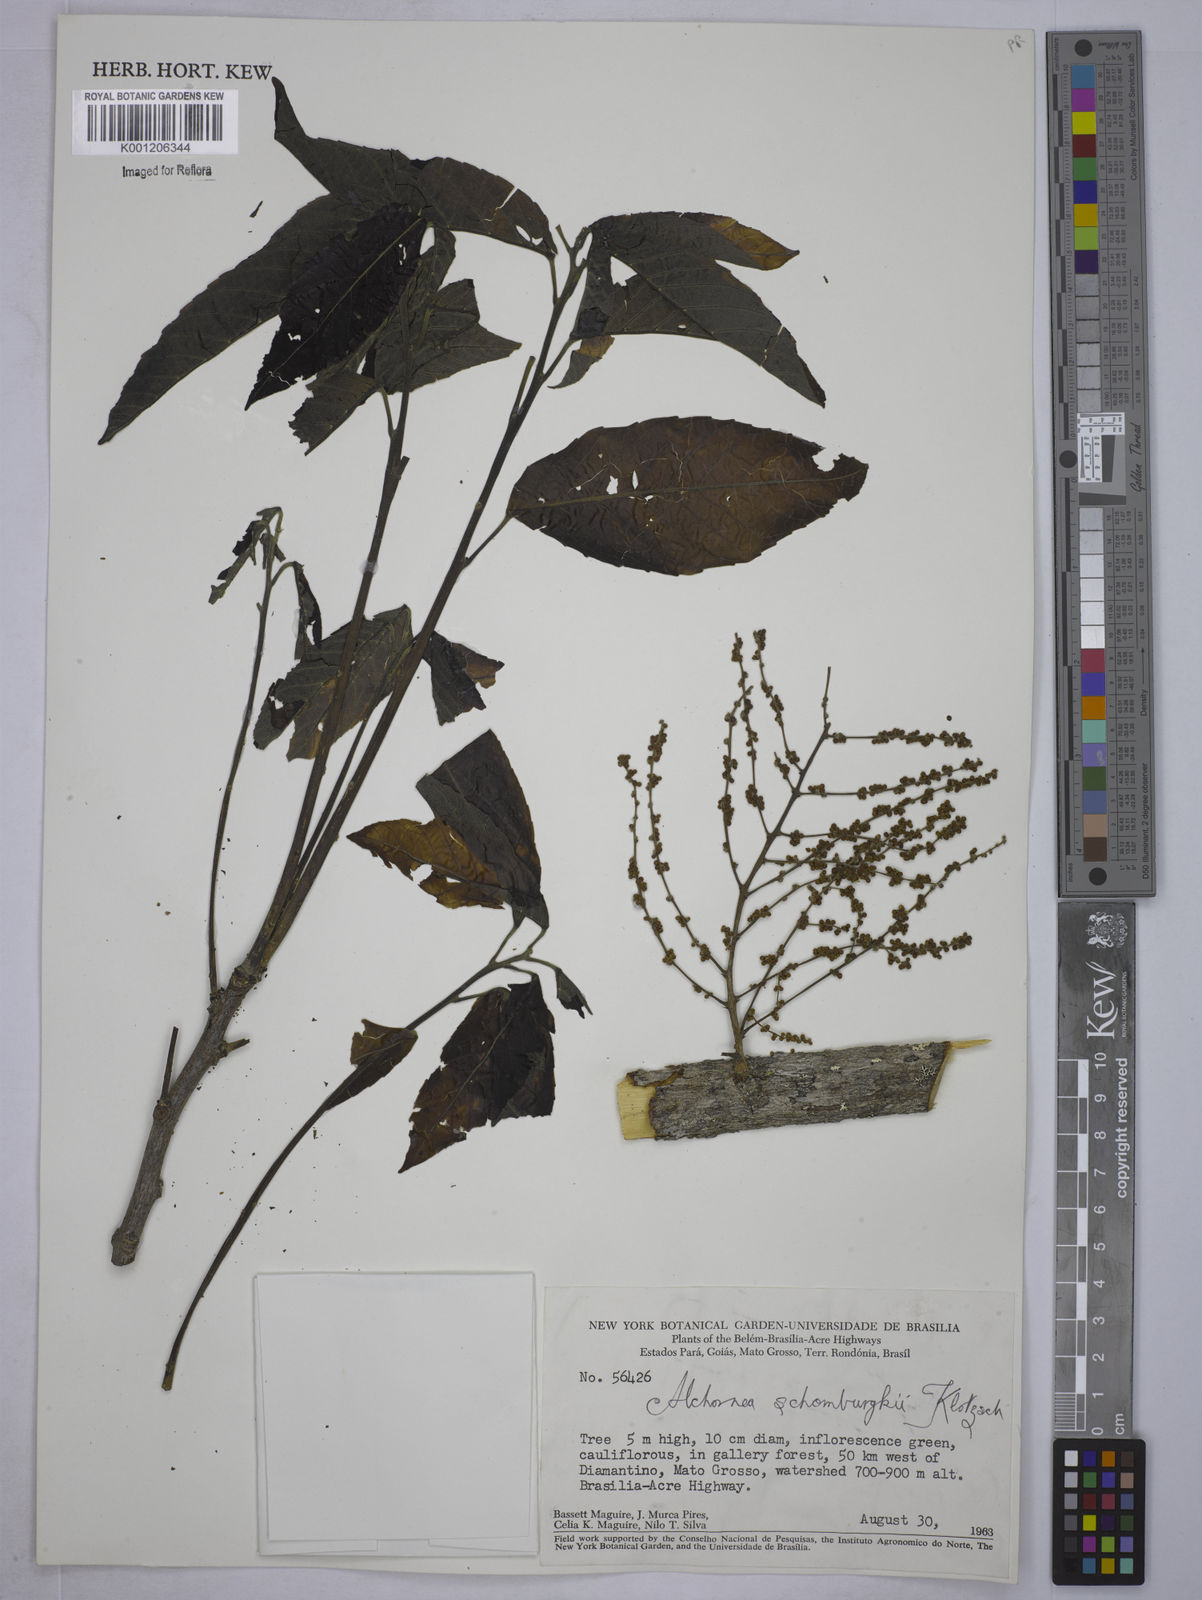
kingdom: Plantae
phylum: Tracheophyta
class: Magnoliopsida
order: Malpighiales
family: Euphorbiaceae
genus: Alchornea
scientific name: Alchornea discolor
